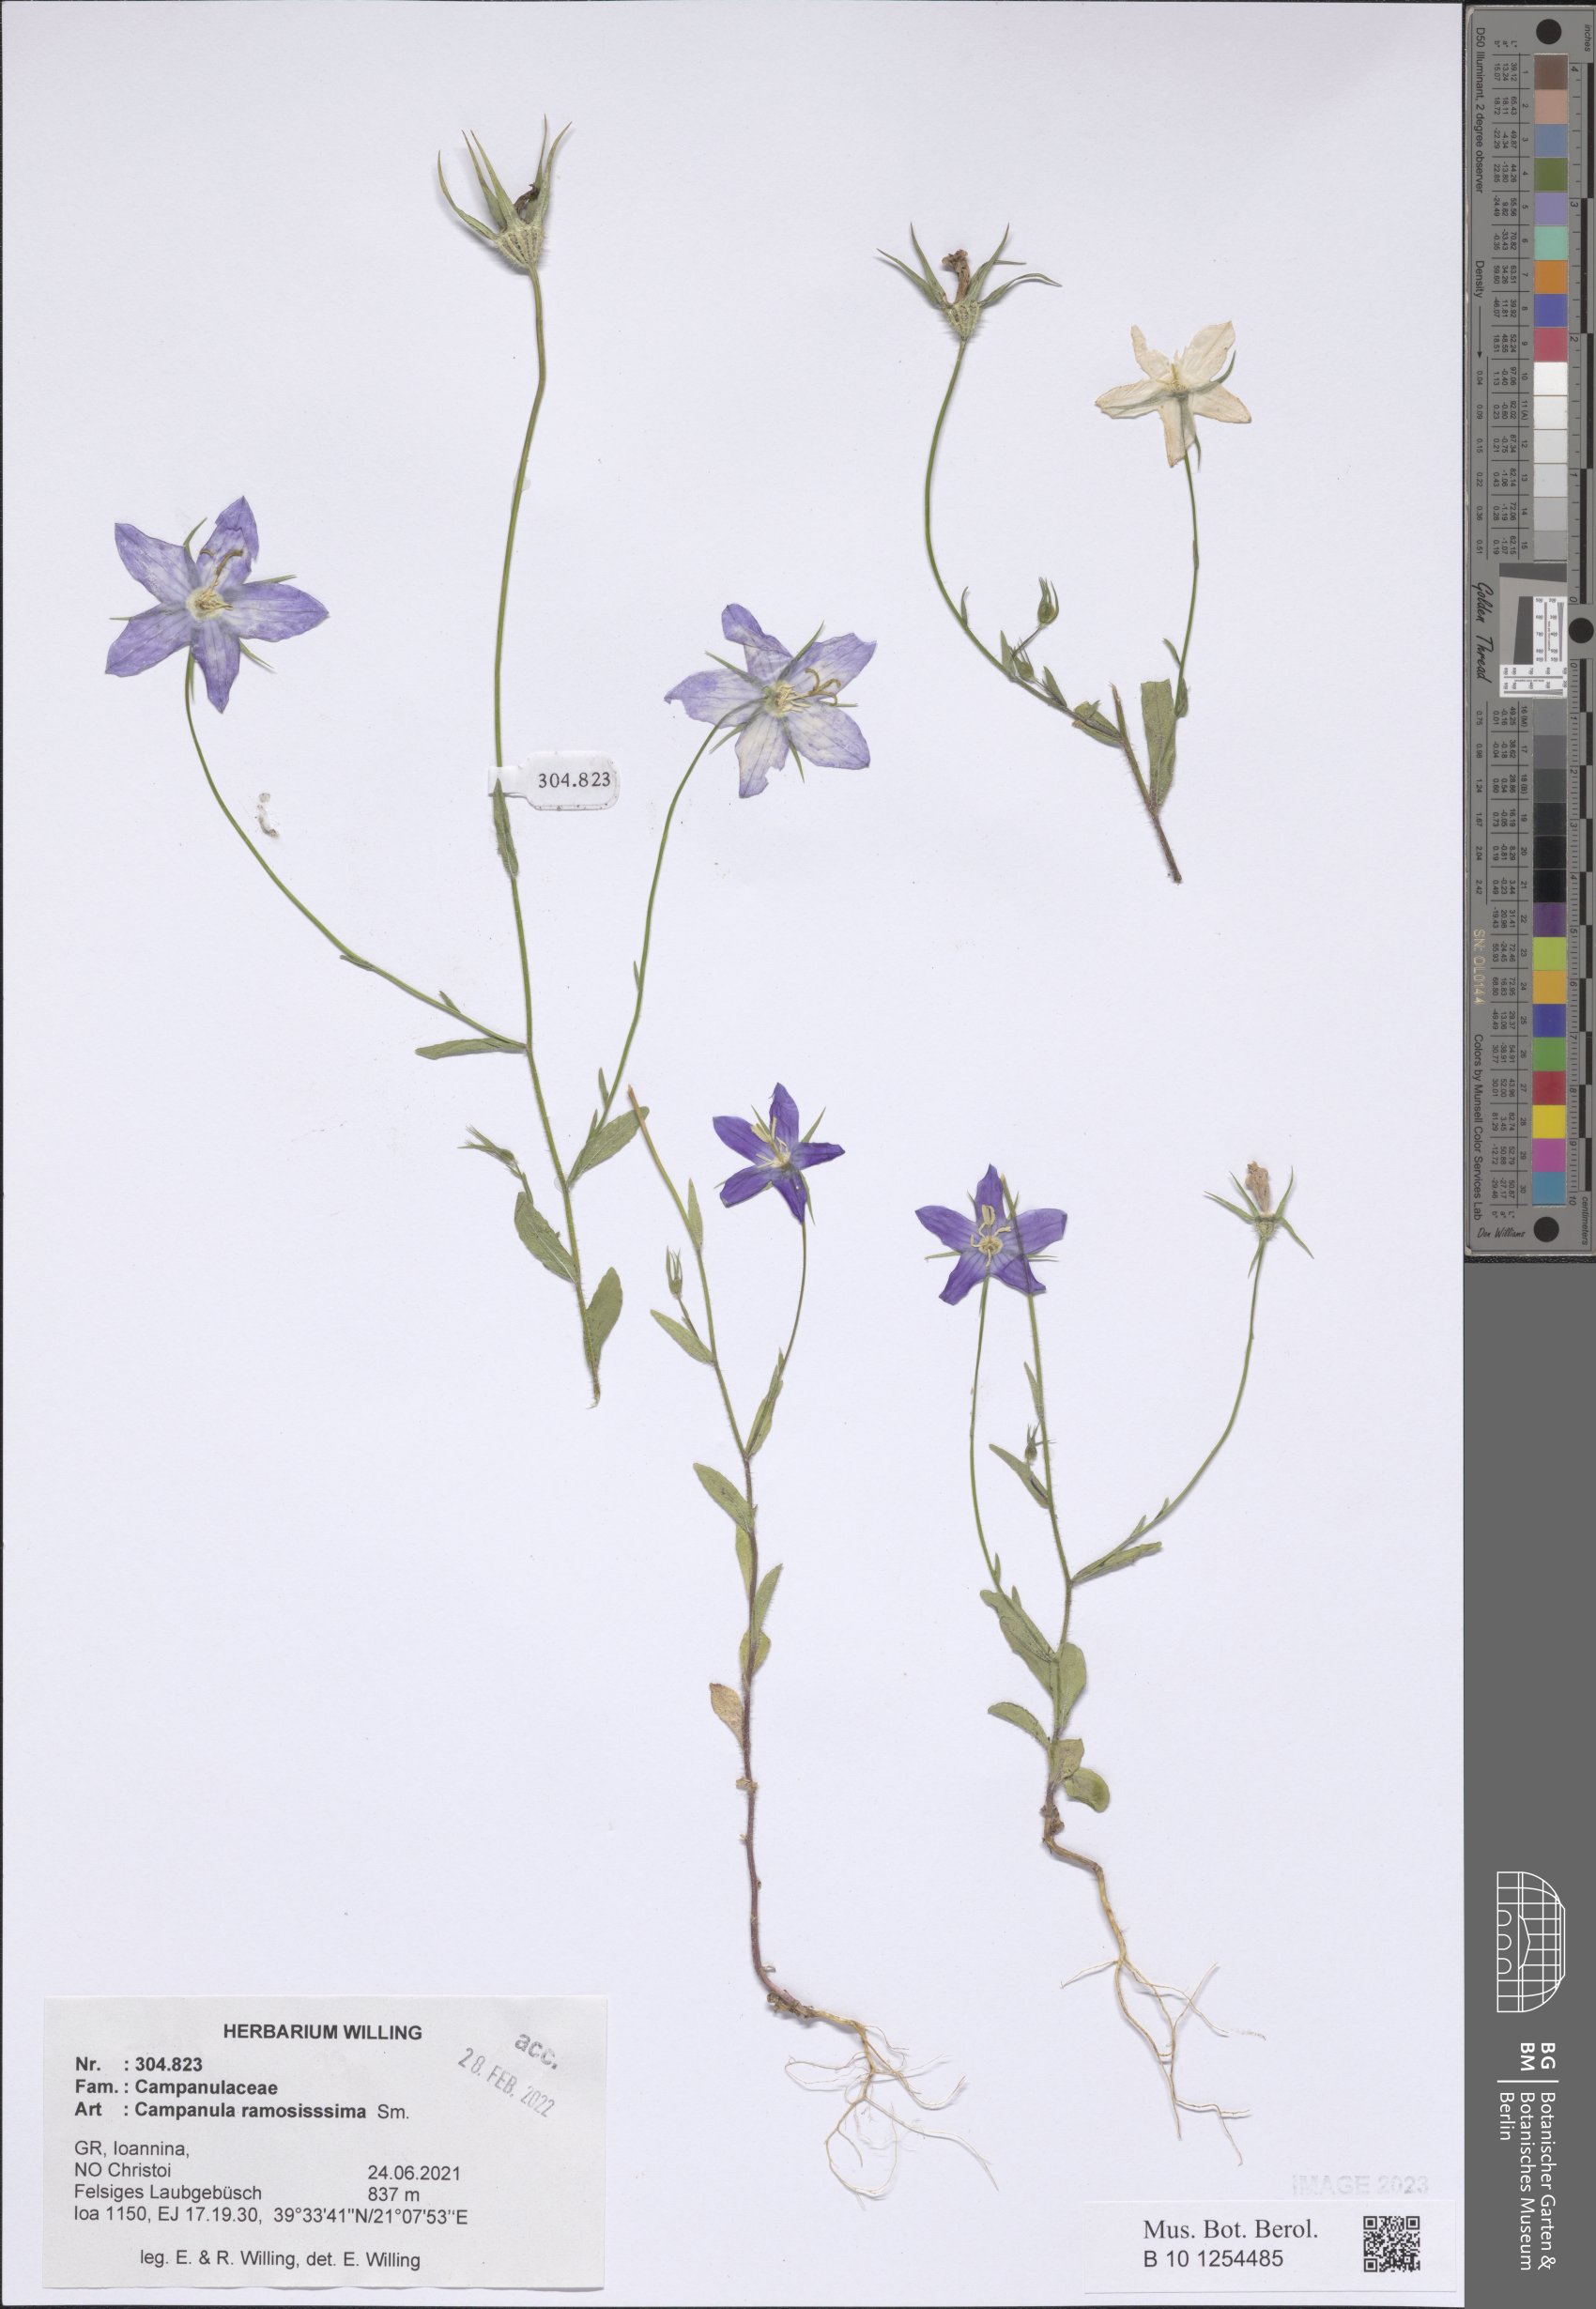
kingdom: Plantae
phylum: Tracheophyta
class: Magnoliopsida
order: Asterales
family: Campanulaceae
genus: Campanula
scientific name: Campanula ramosissima
